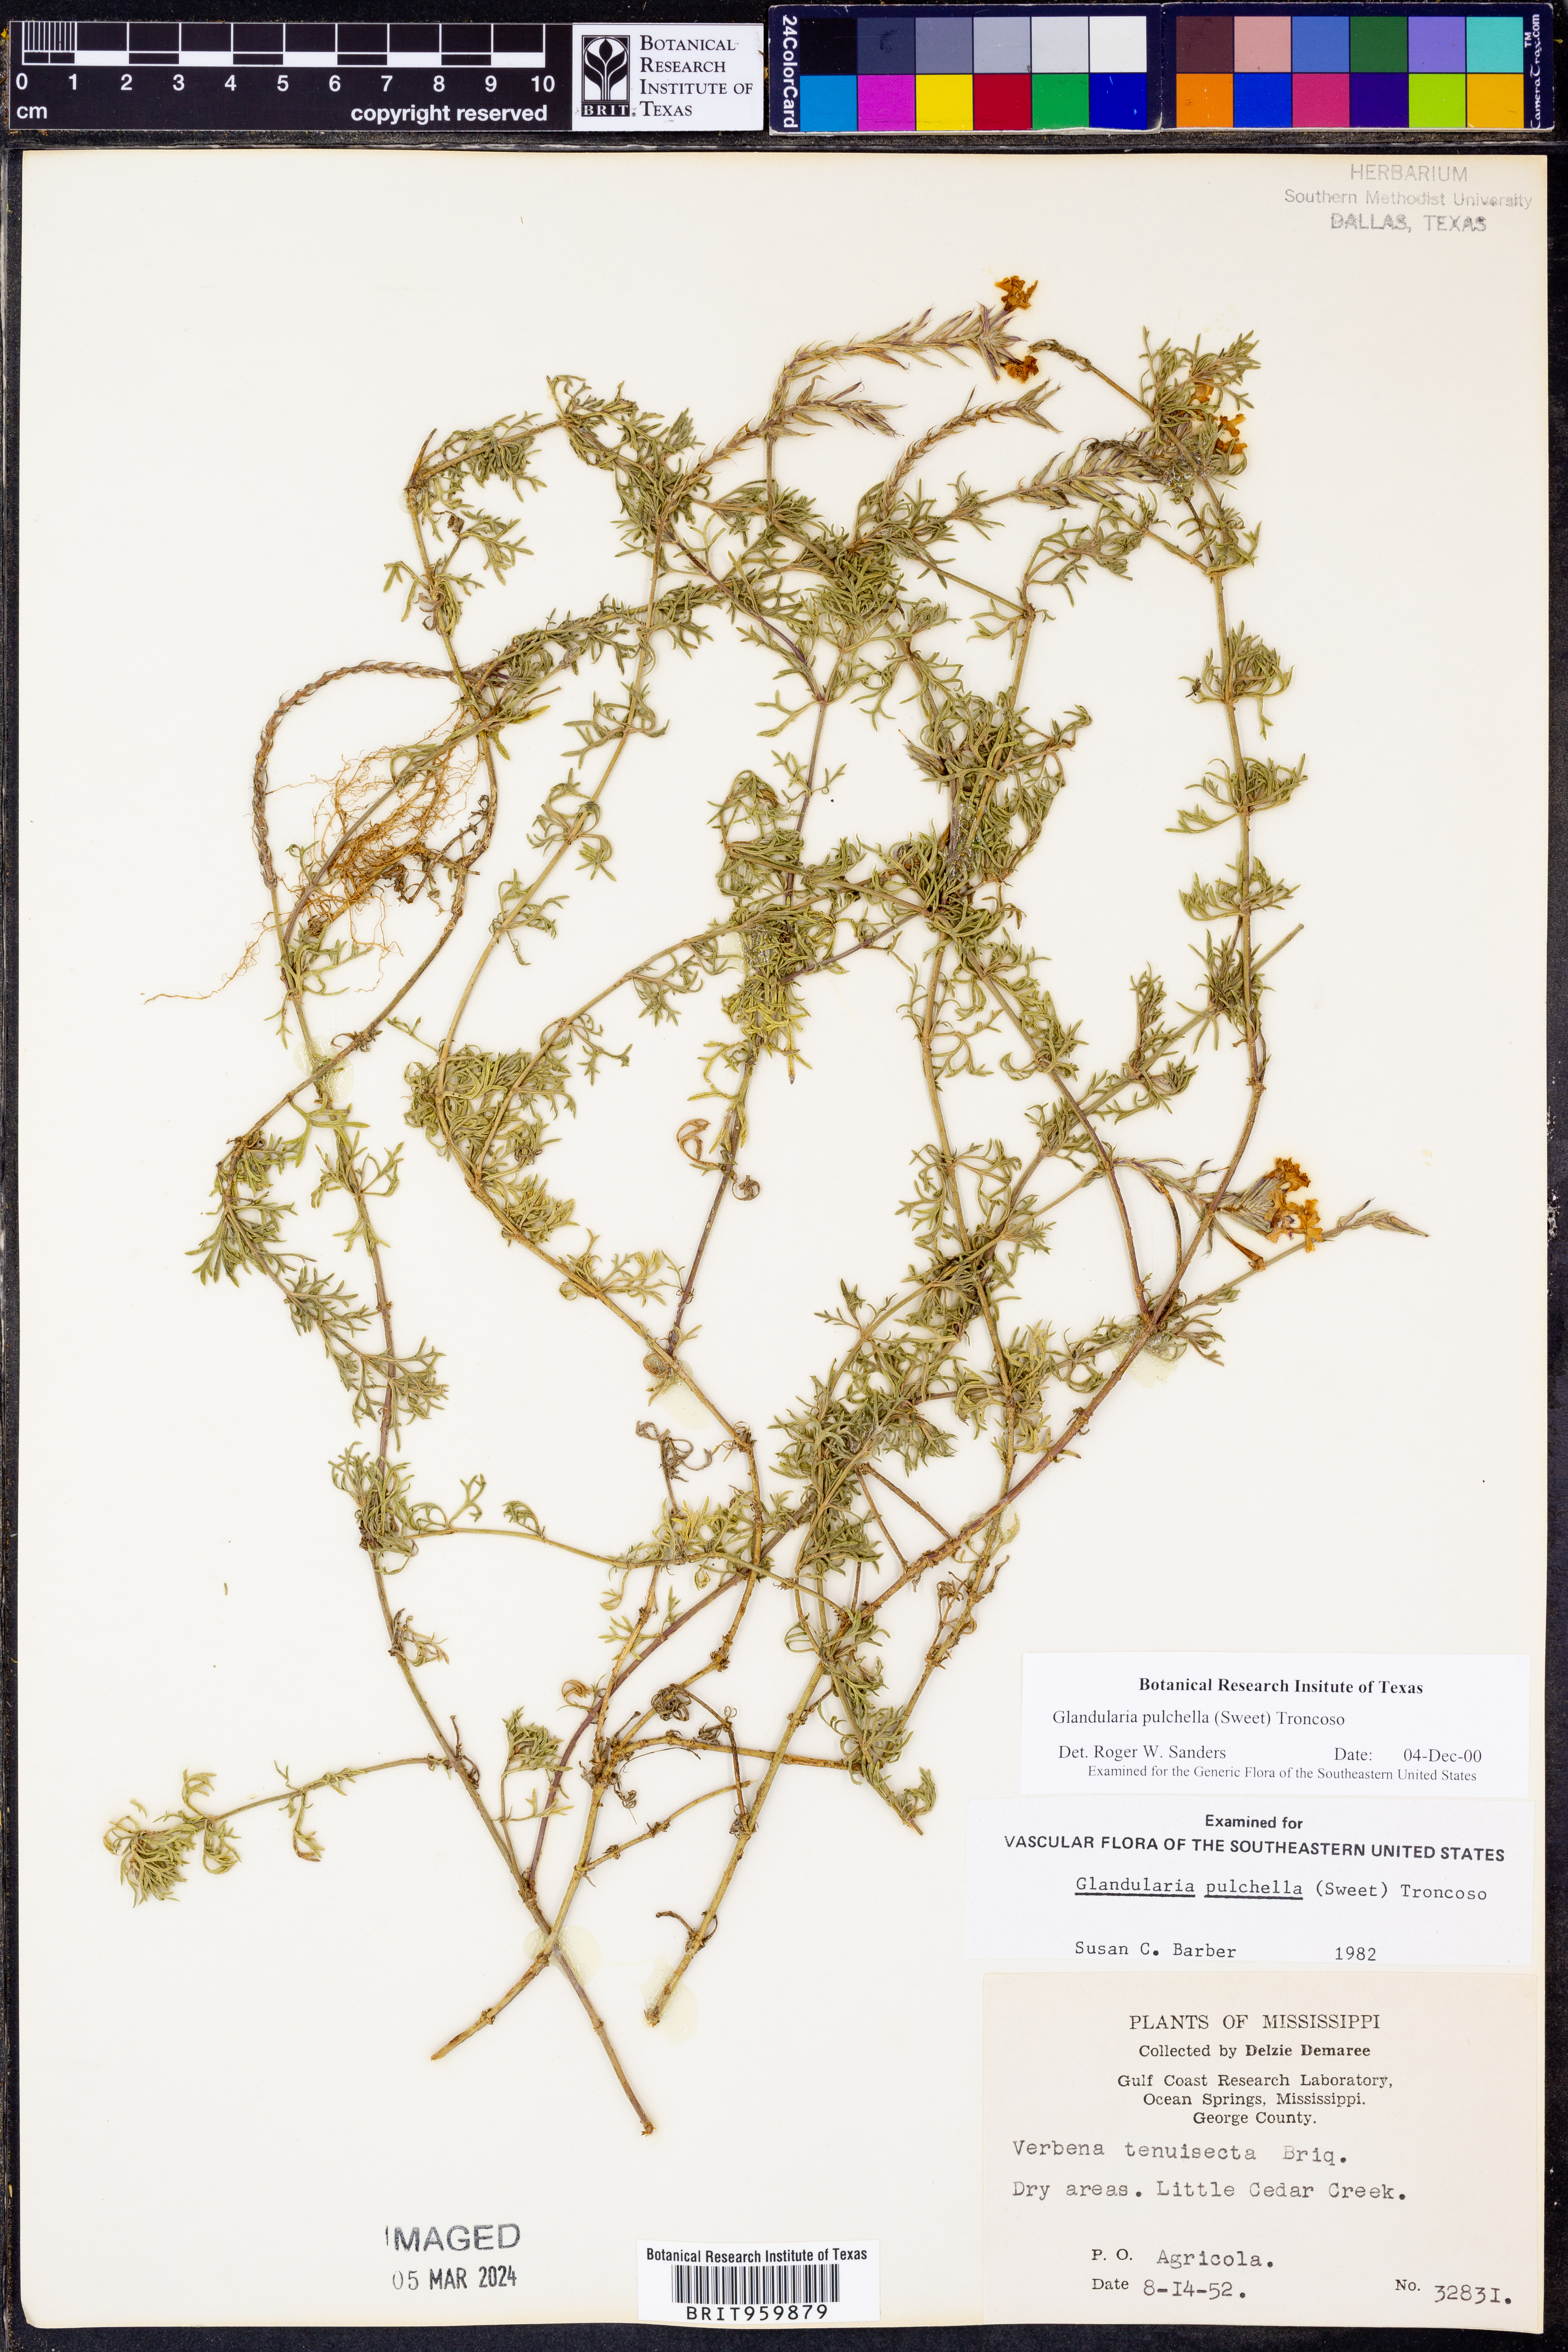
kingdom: Plantae
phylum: Tracheophyta
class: Magnoliopsida
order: Lamiales
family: Verbenaceae
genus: Verbena
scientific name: Verbena tenera
